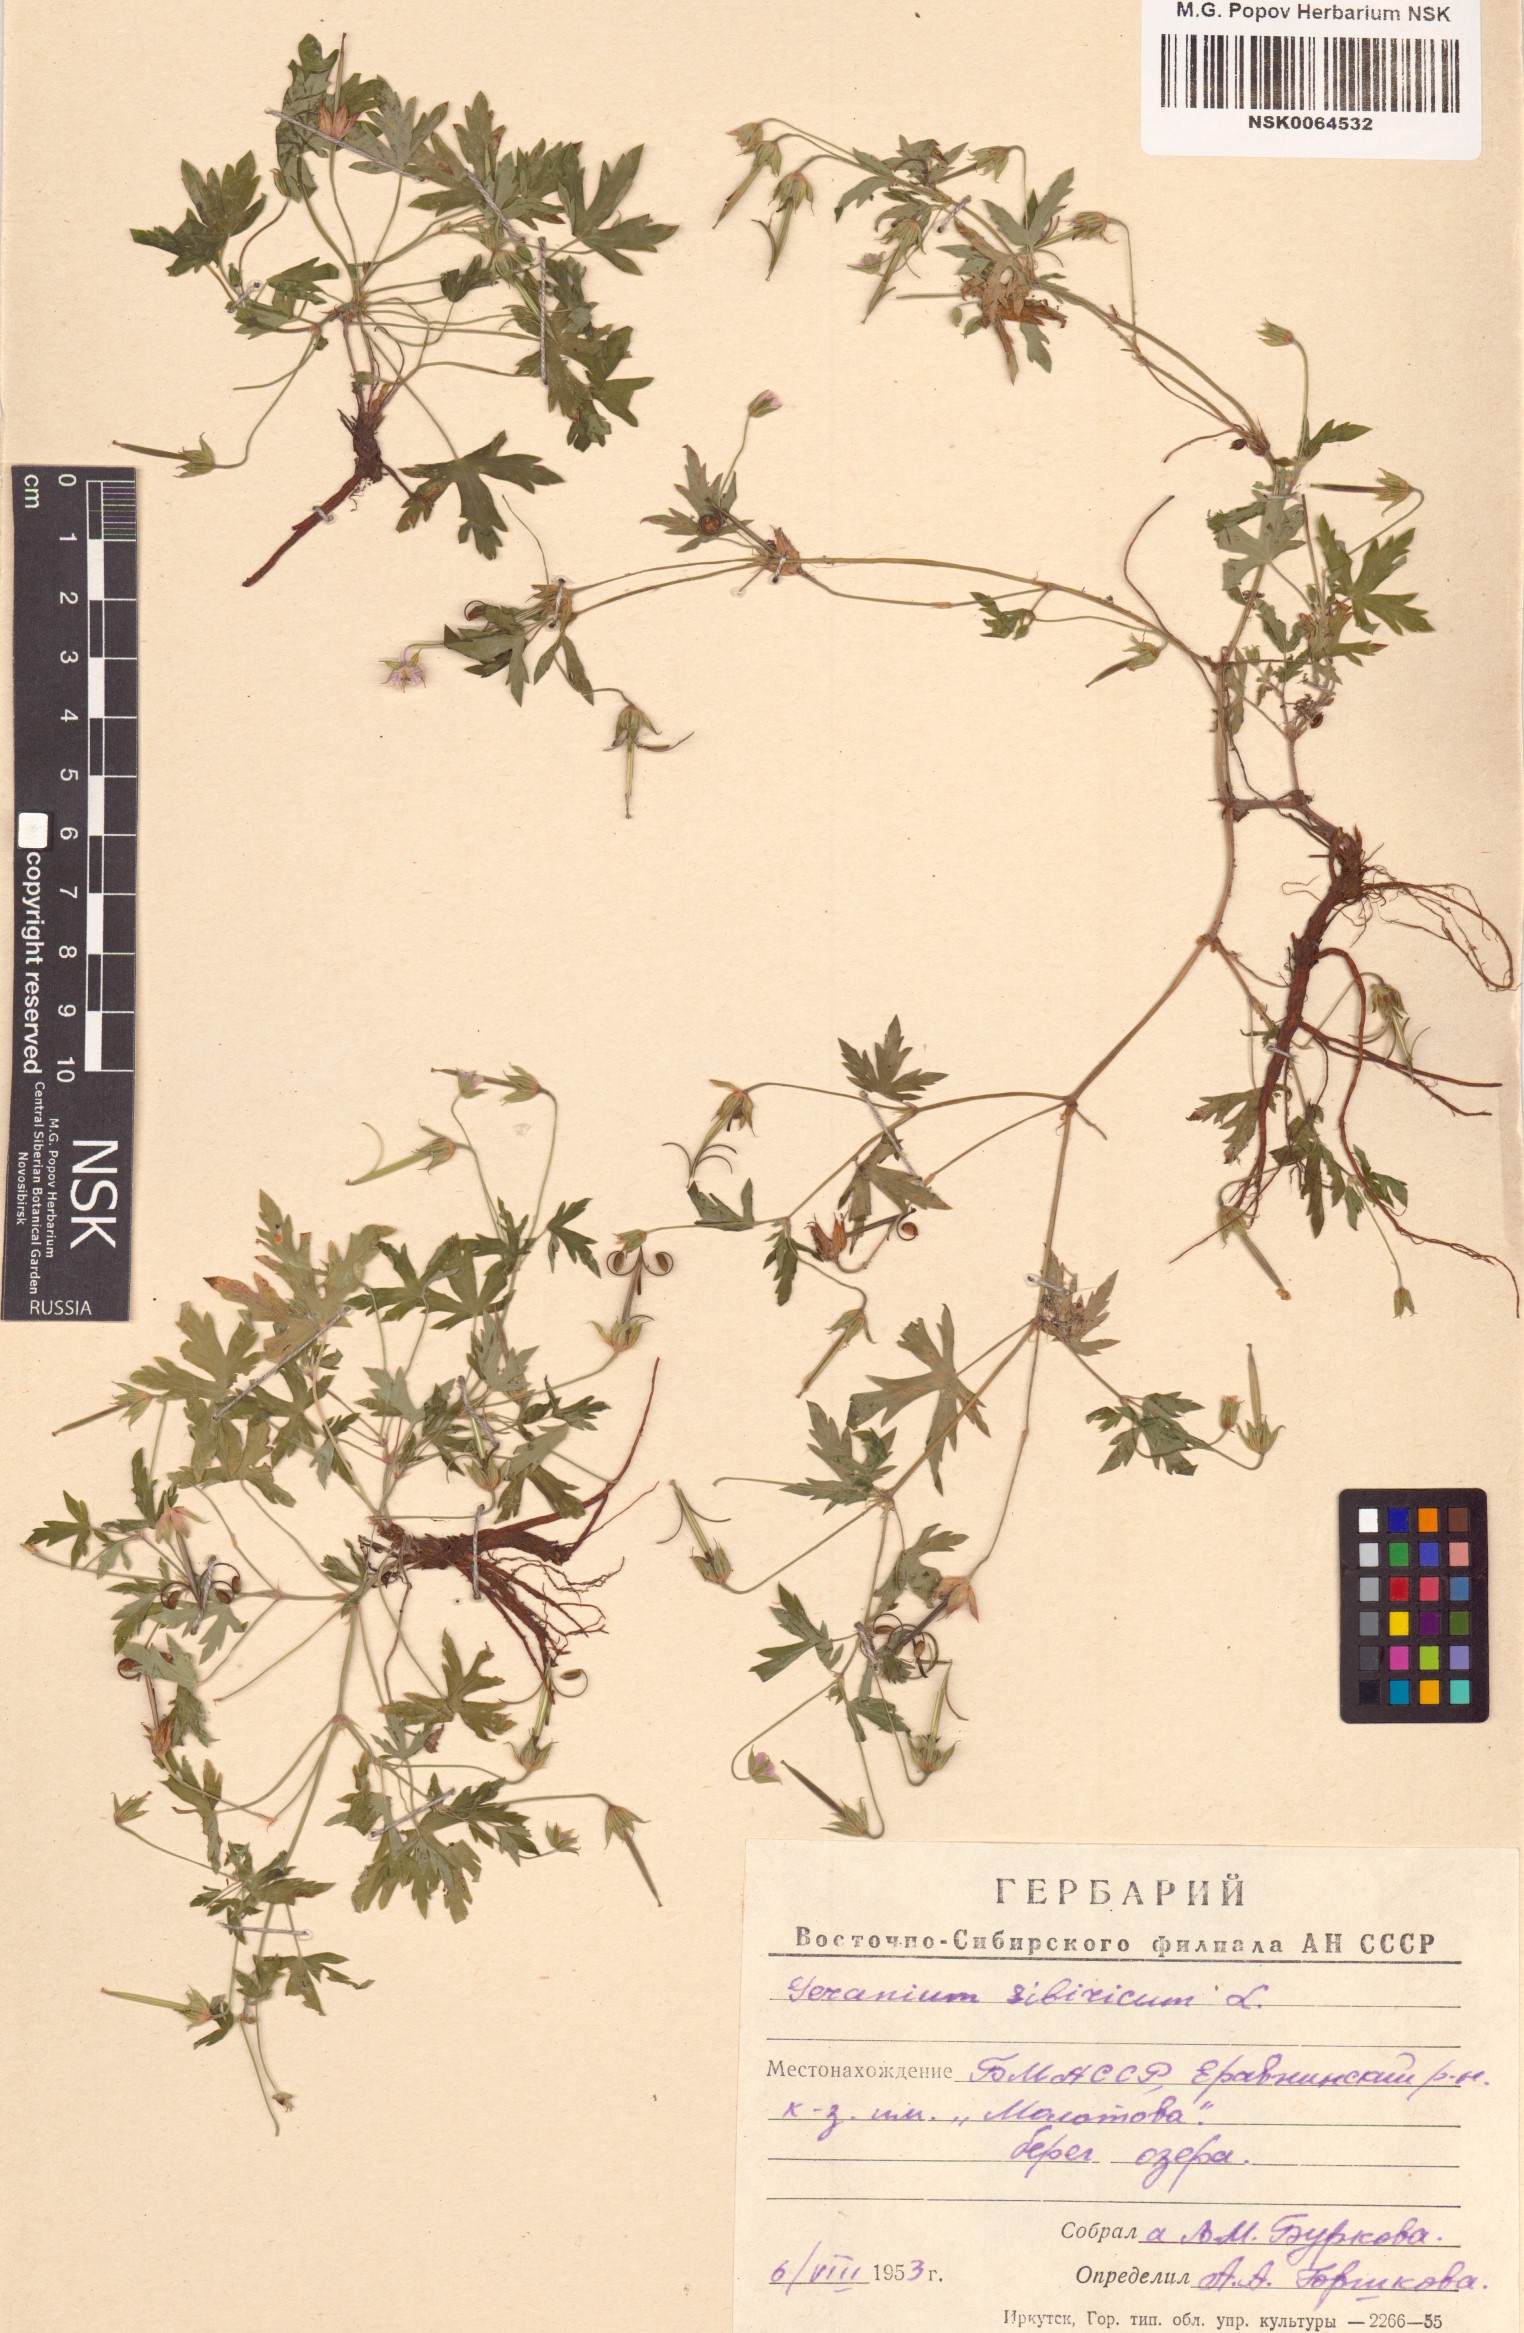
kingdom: Plantae
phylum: Tracheophyta
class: Magnoliopsida
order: Geraniales
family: Geraniaceae
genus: Geranium
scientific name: Geranium sibiricum
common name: Siberian crane's-bill
